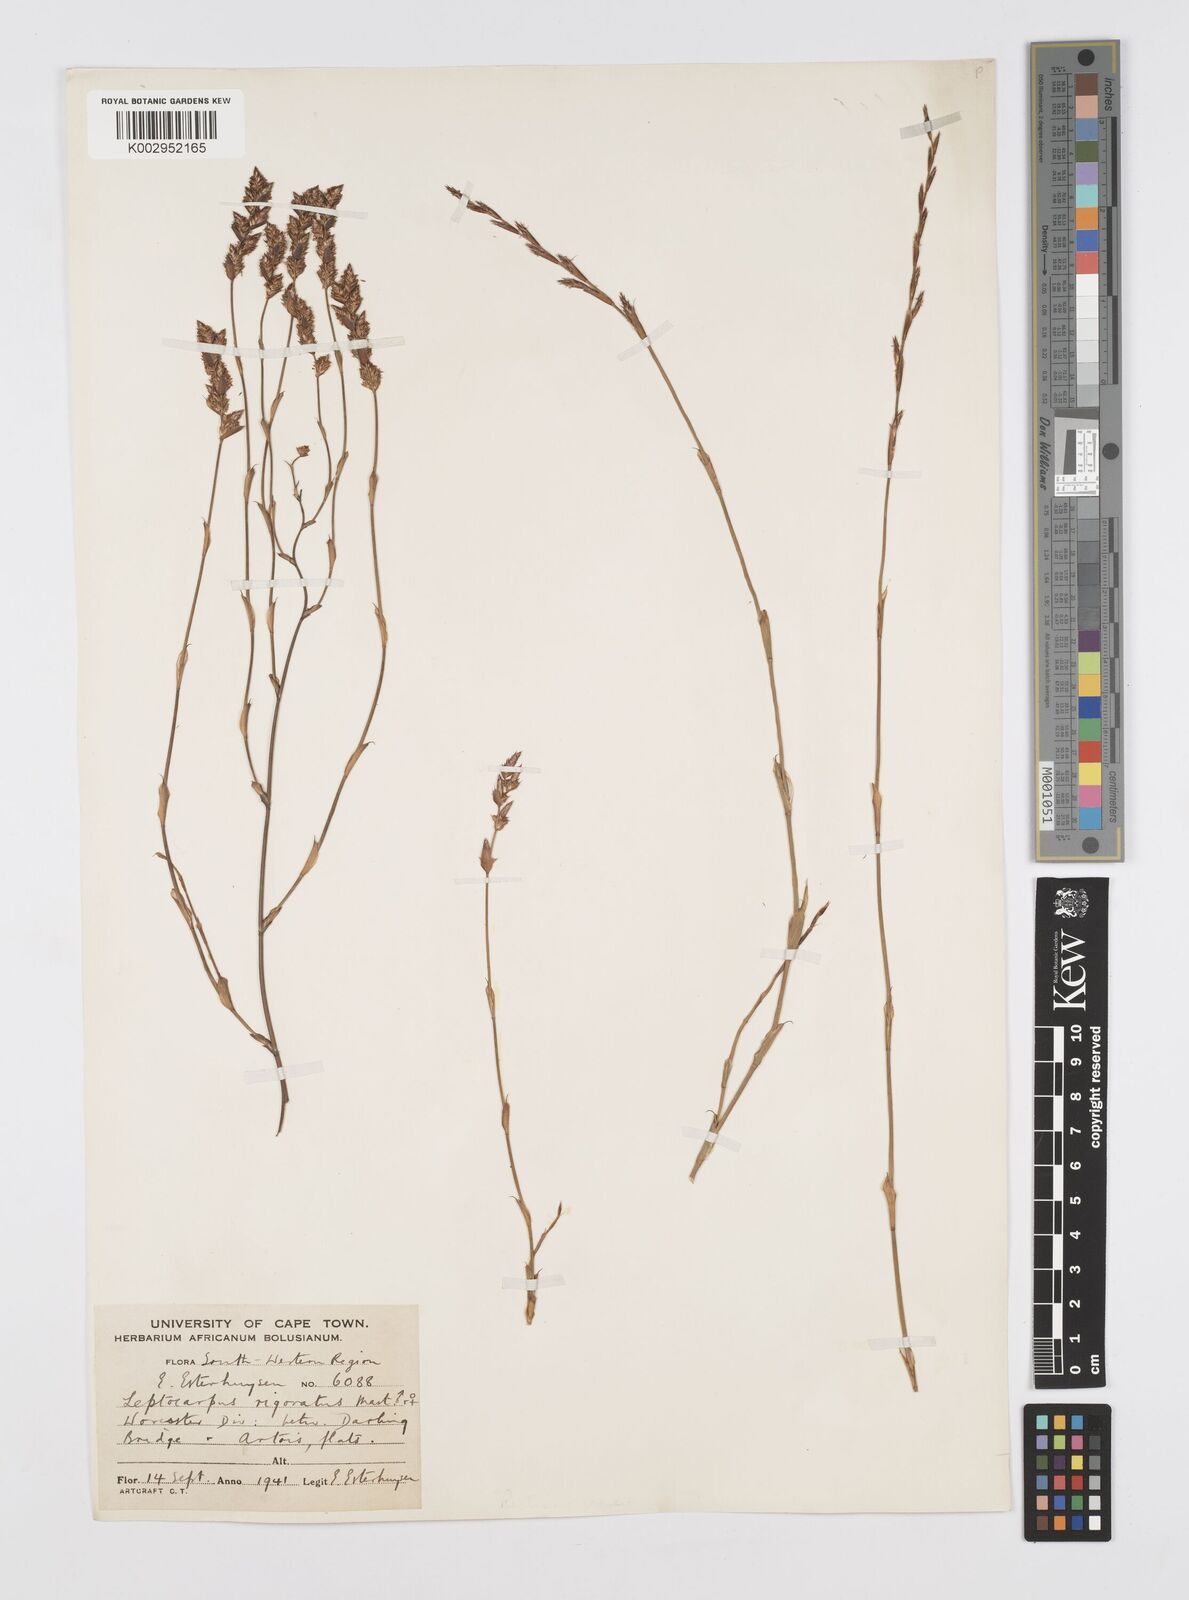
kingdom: Plantae
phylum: Tracheophyta
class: Liliopsida
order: Poales
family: Restionaceae
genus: Restio
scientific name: Restio rigoratus
